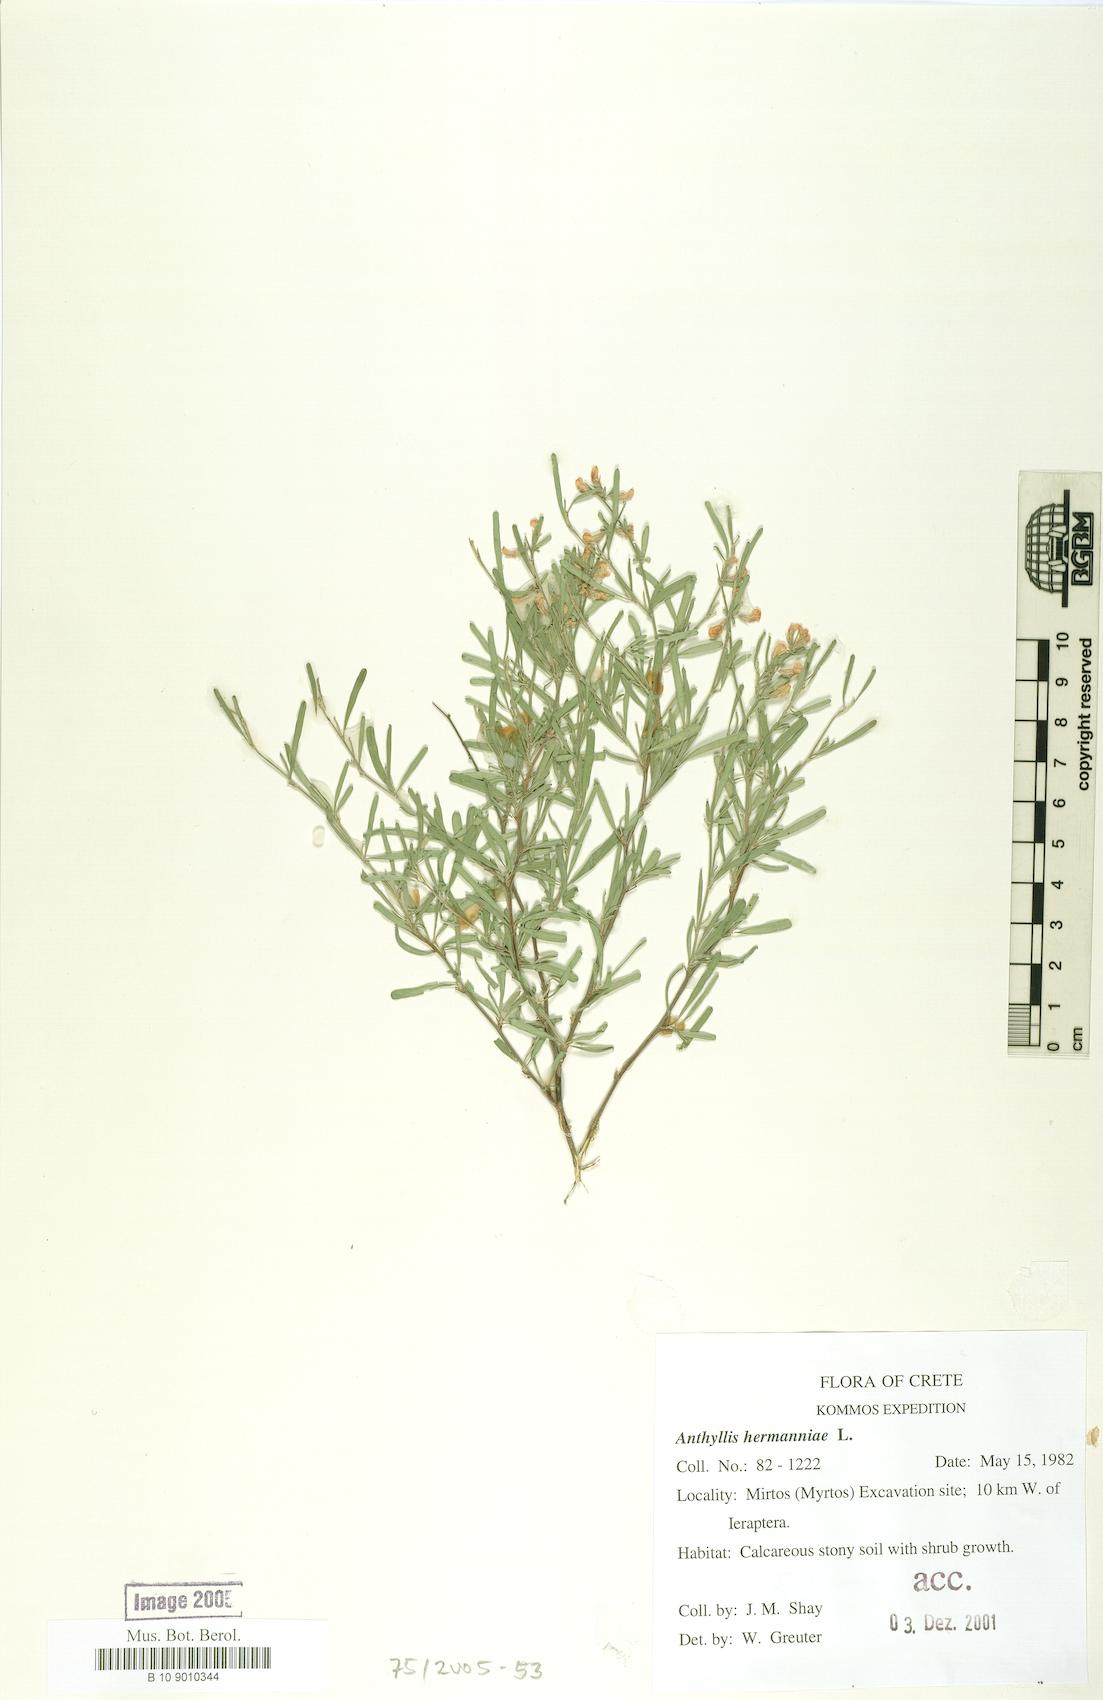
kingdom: Plantae
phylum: Tracheophyta
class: Magnoliopsida
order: Fabales
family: Fabaceae
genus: Anthyllis
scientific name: Anthyllis hermanniae
